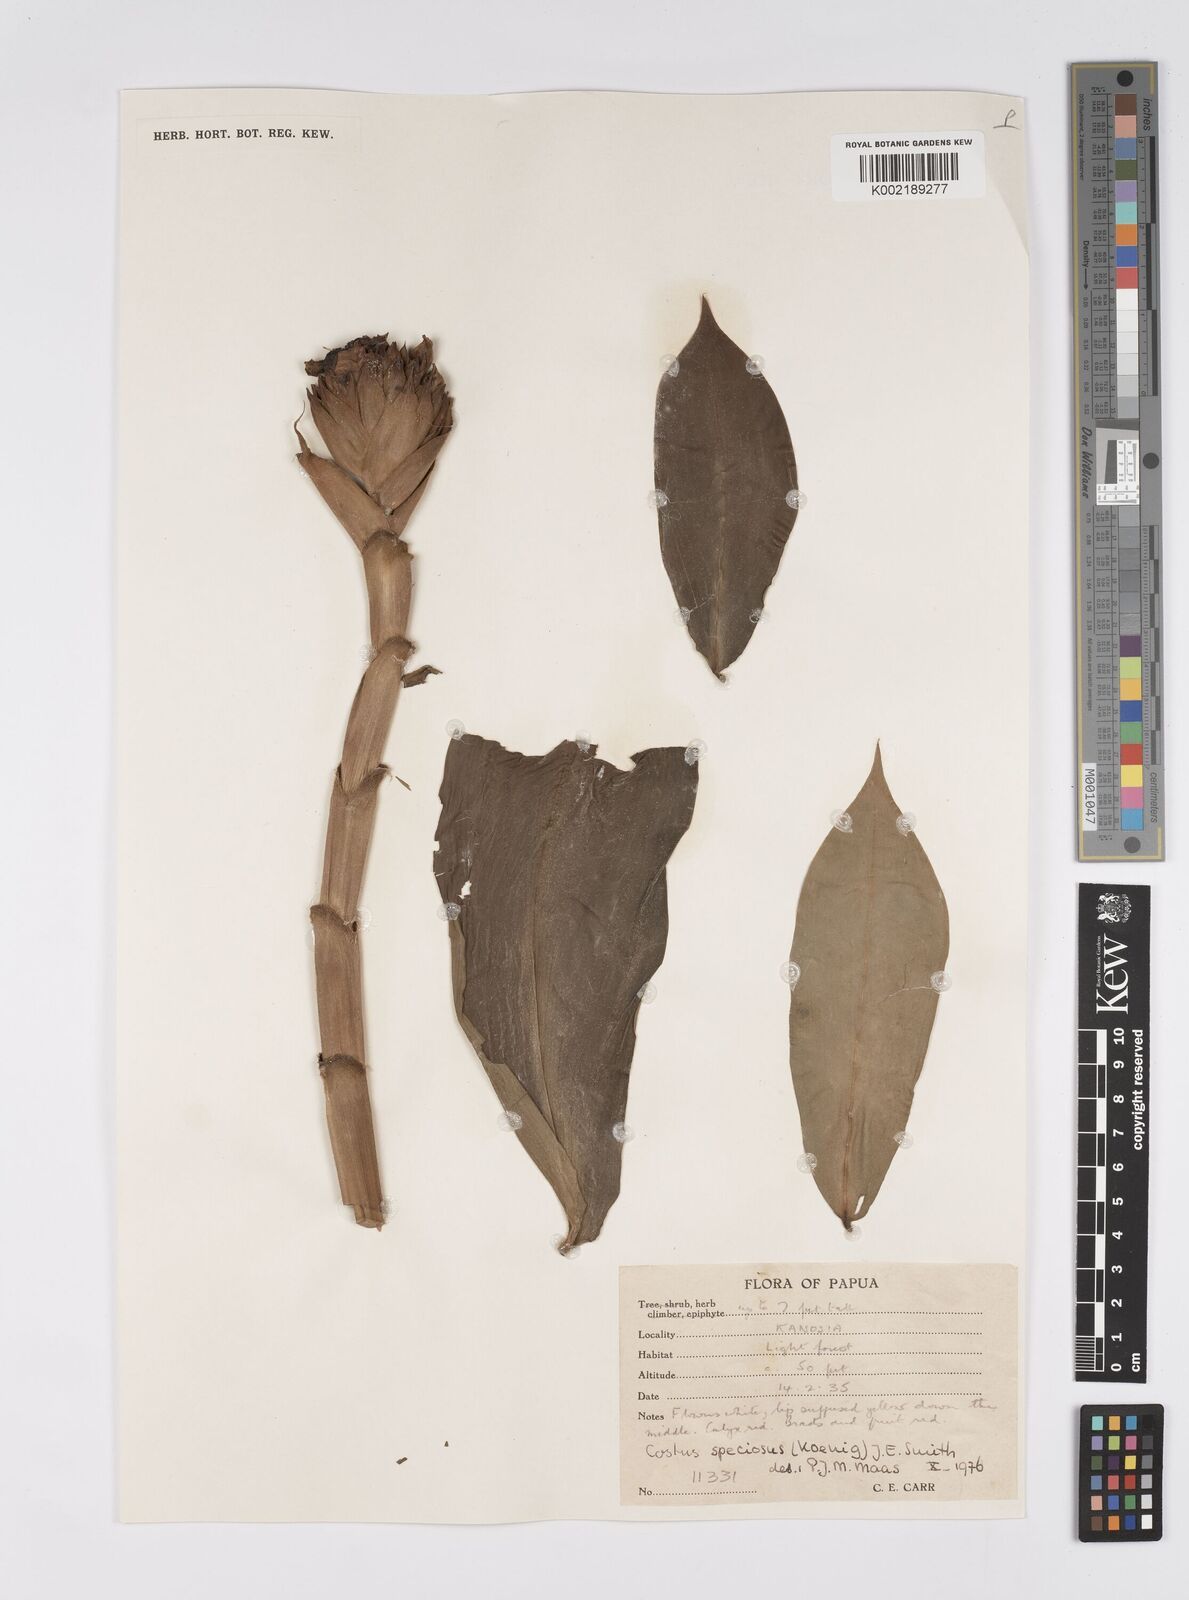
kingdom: Plantae
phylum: Tracheophyta
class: Liliopsida
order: Zingiberales
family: Costaceae
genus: Hellenia
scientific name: Hellenia speciosa
